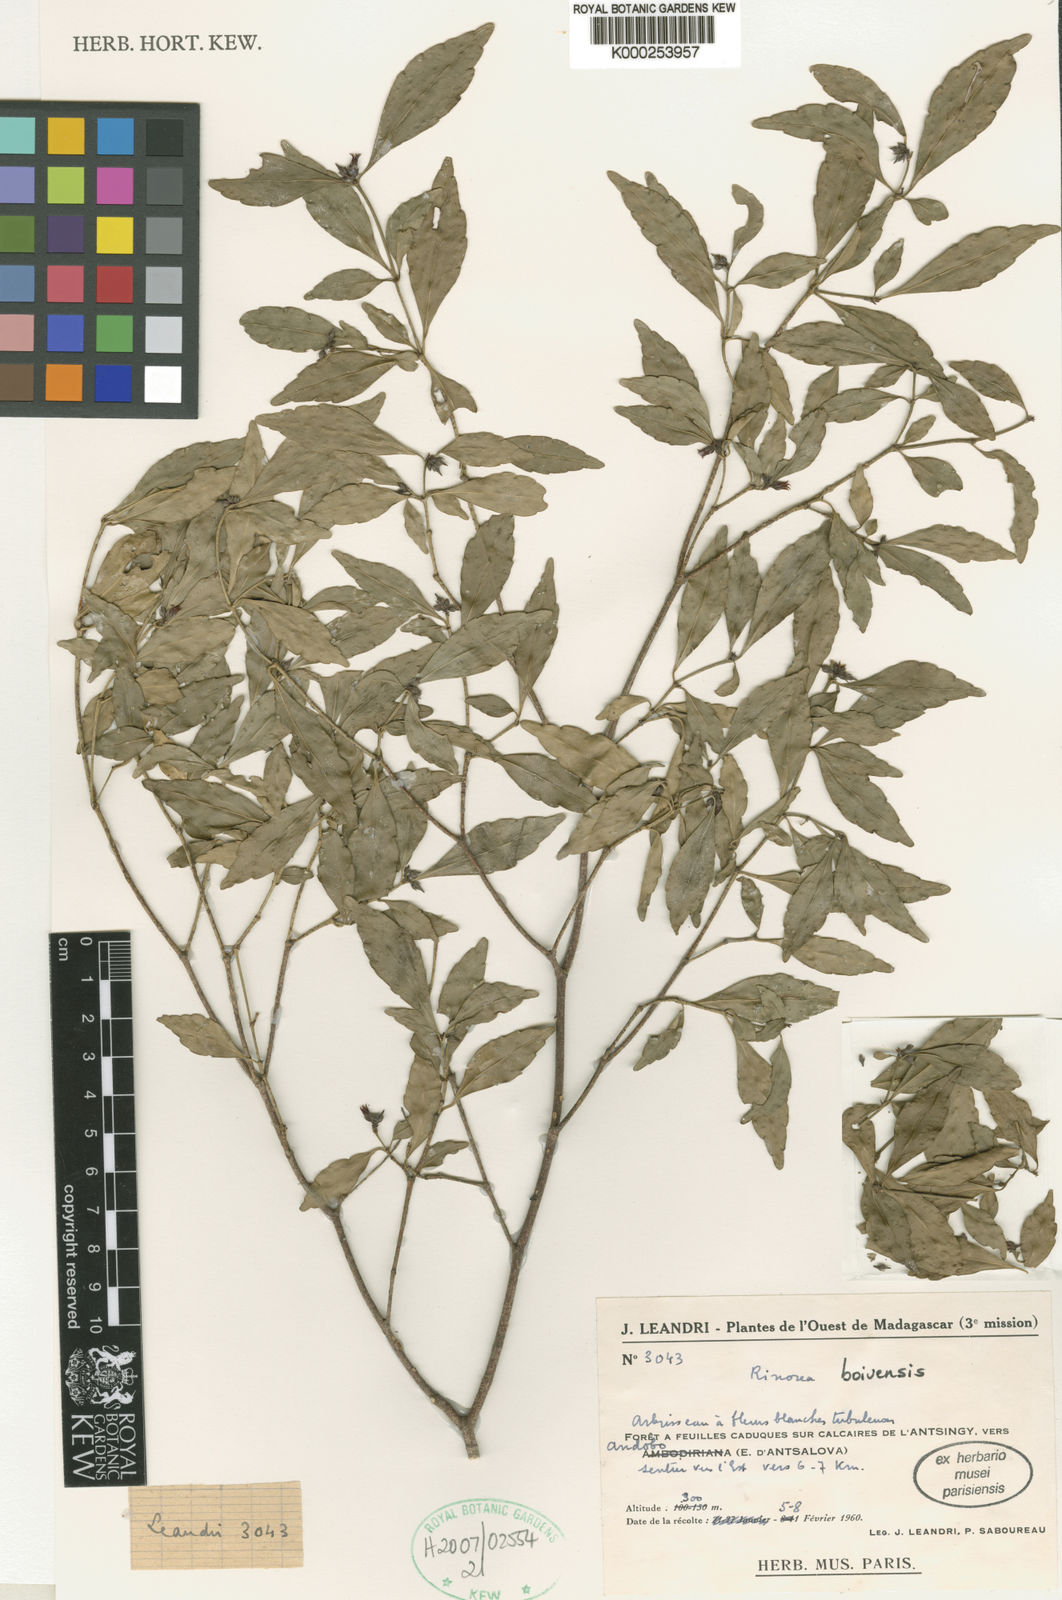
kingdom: Plantae
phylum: Tracheophyta
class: Magnoliopsida
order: Malpighiales
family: Violaceae
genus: Rinorea
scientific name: Rinorea
